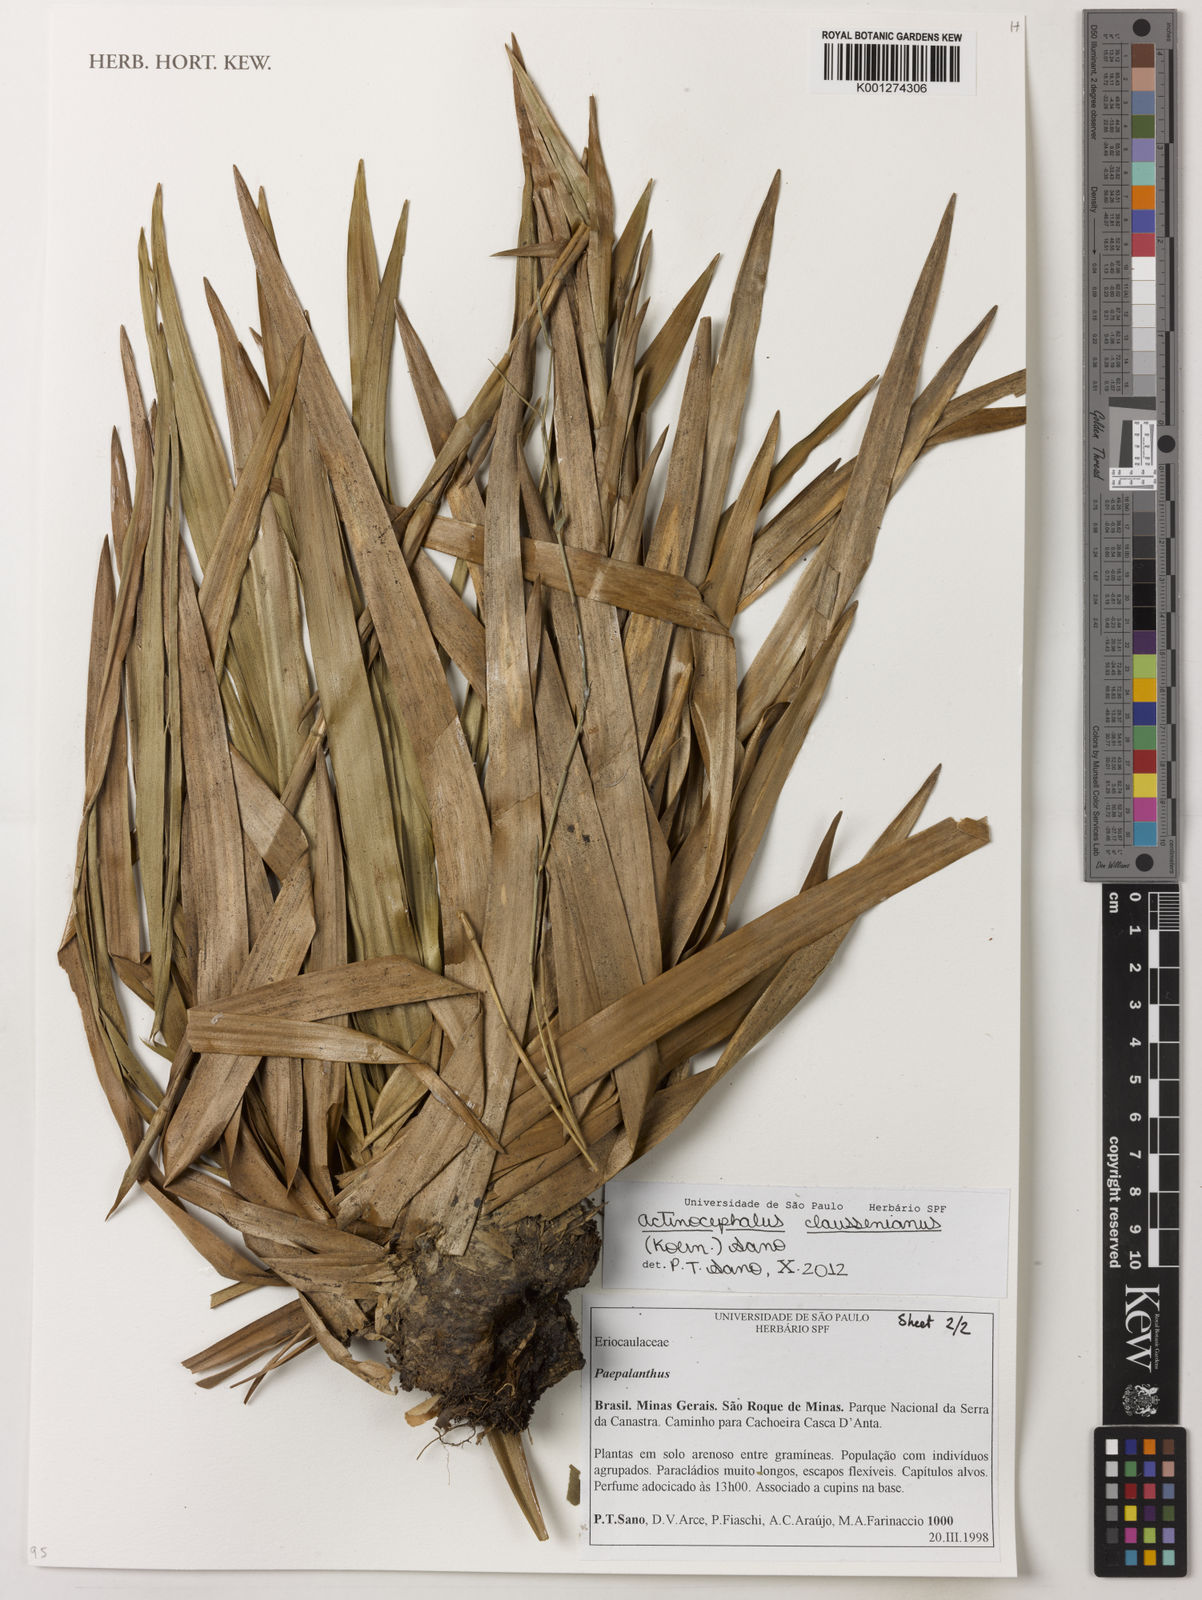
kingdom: Plantae
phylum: Tracheophyta
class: Liliopsida
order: Poales
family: Eriocaulaceae
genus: Paepalanthus
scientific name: Paepalanthus claussenianus
